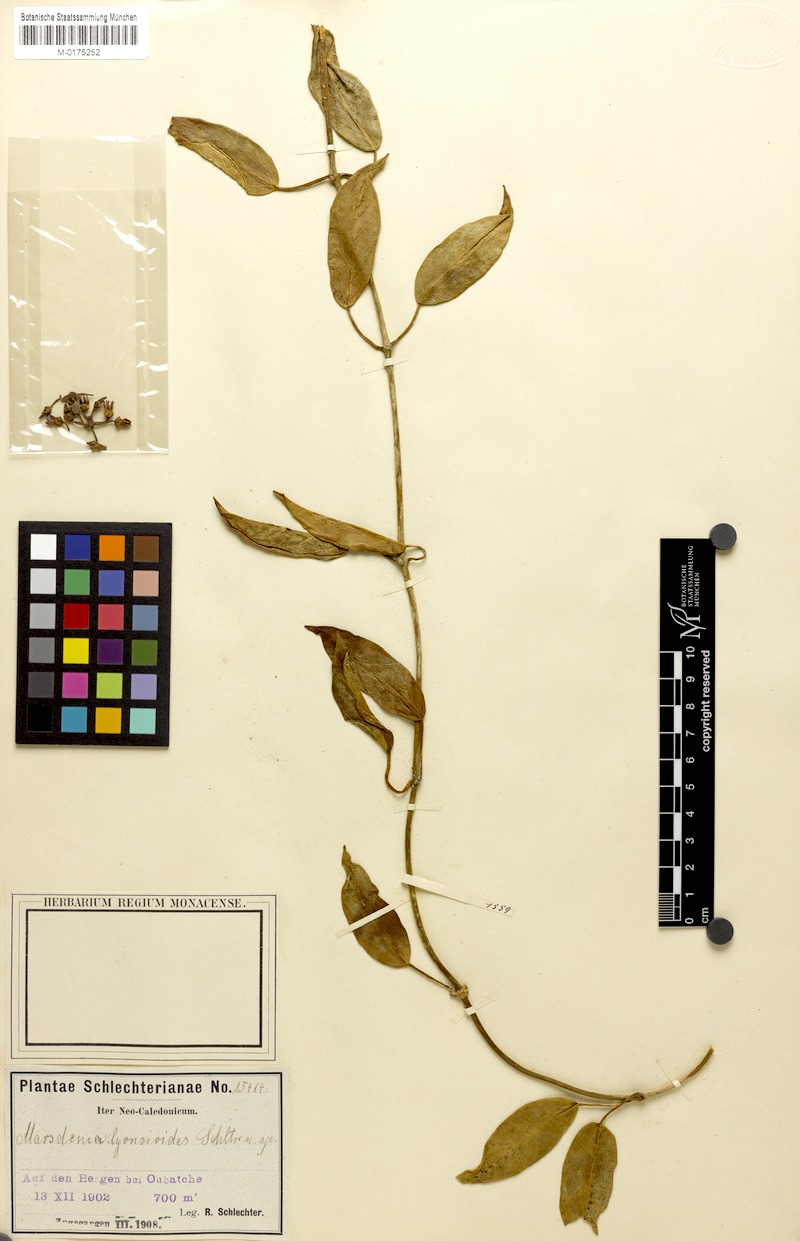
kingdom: Plantae
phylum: Tracheophyta
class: Magnoliopsida
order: Gentianales
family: Apocynaceae
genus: Leichhardtia
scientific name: Leichhardtia lyonsioides
